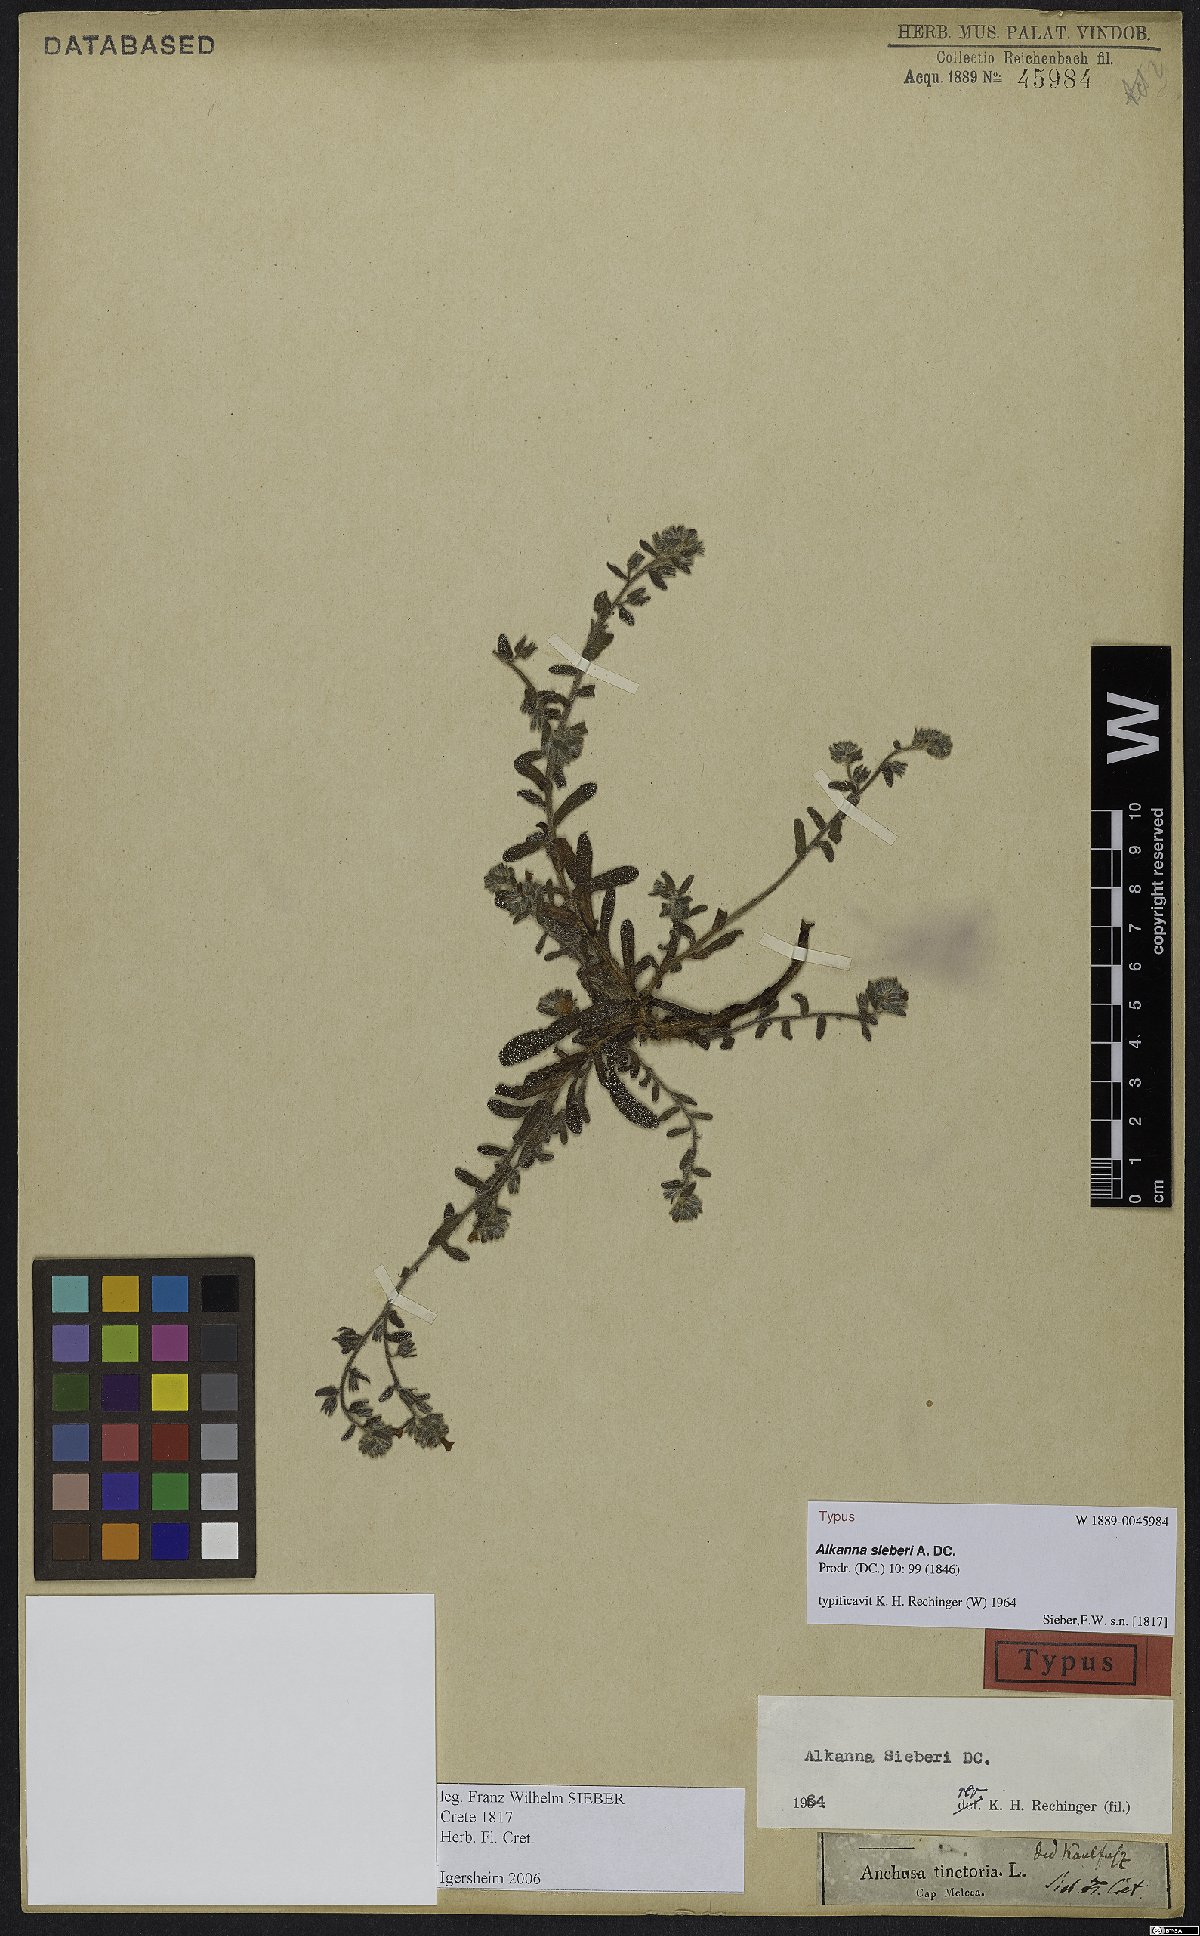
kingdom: Plantae
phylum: Tracheophyta
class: Magnoliopsida
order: Boraginales
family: Boraginaceae
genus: Alkanna
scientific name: Alkanna sieberi
